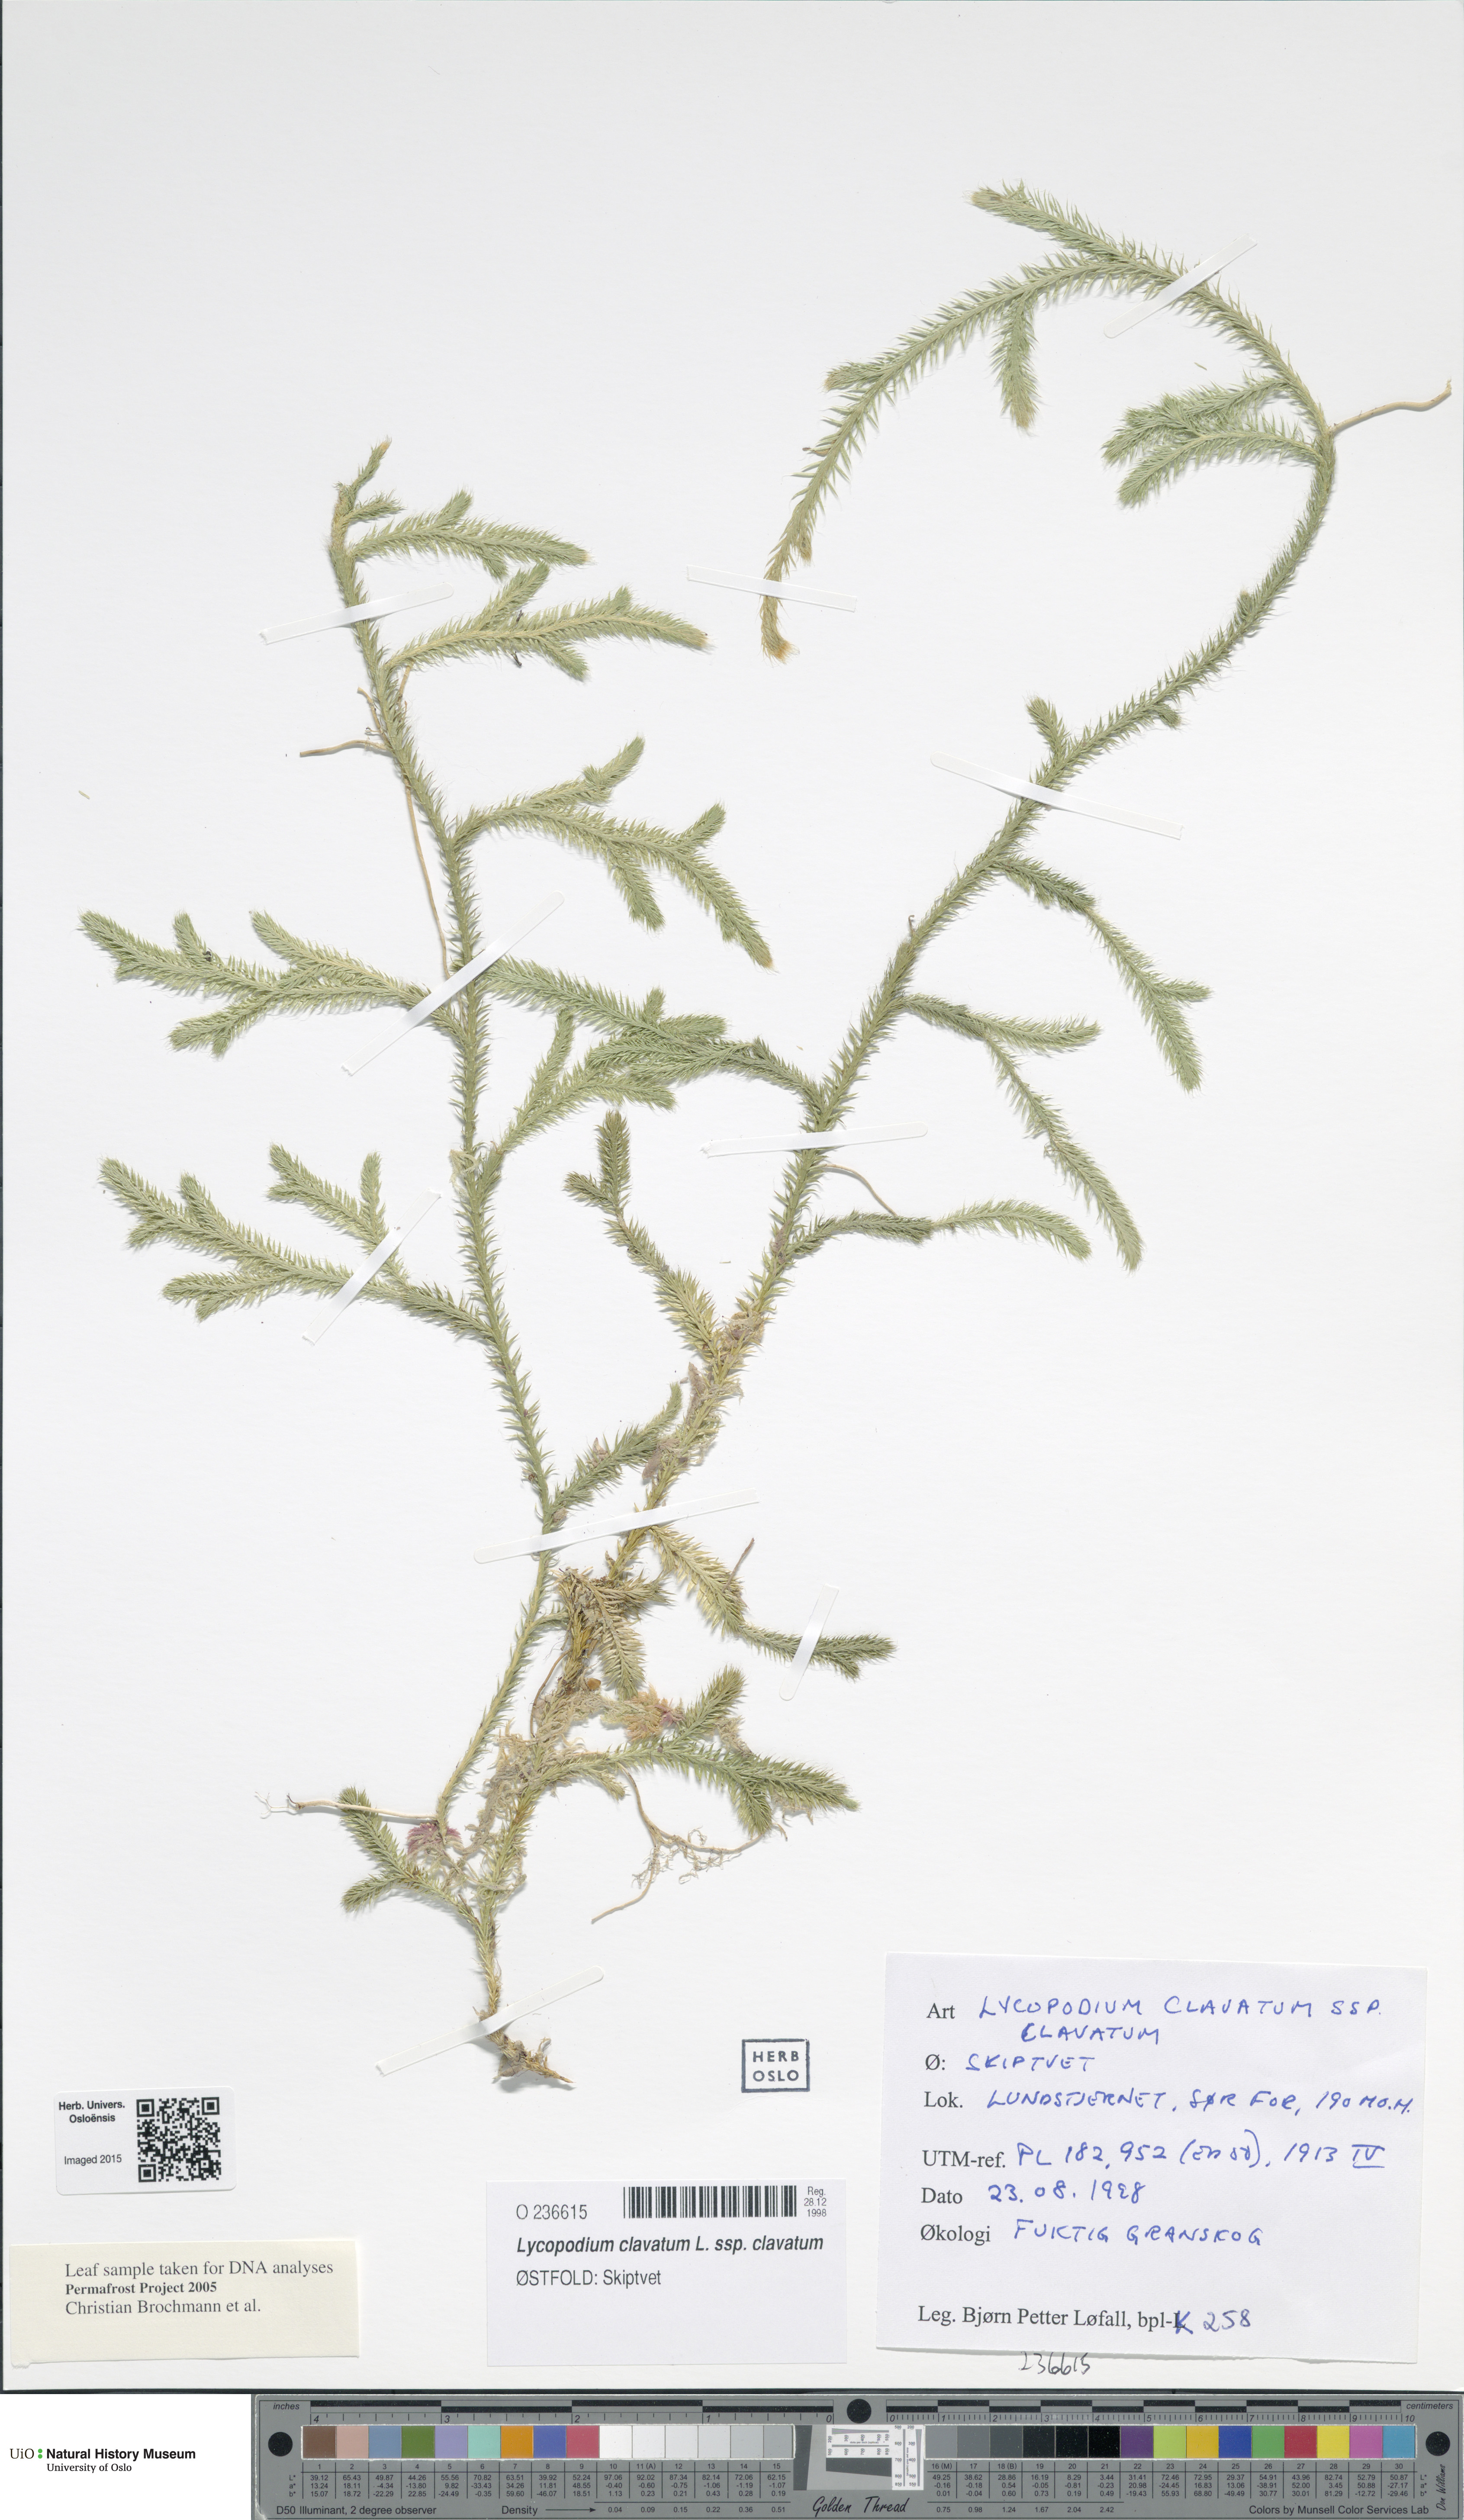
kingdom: Plantae
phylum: Tracheophyta
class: Lycopodiopsida
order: Lycopodiales
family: Lycopodiaceae
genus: Lycopodium
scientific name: Lycopodium clavatum
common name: Stag's-horn clubmoss
